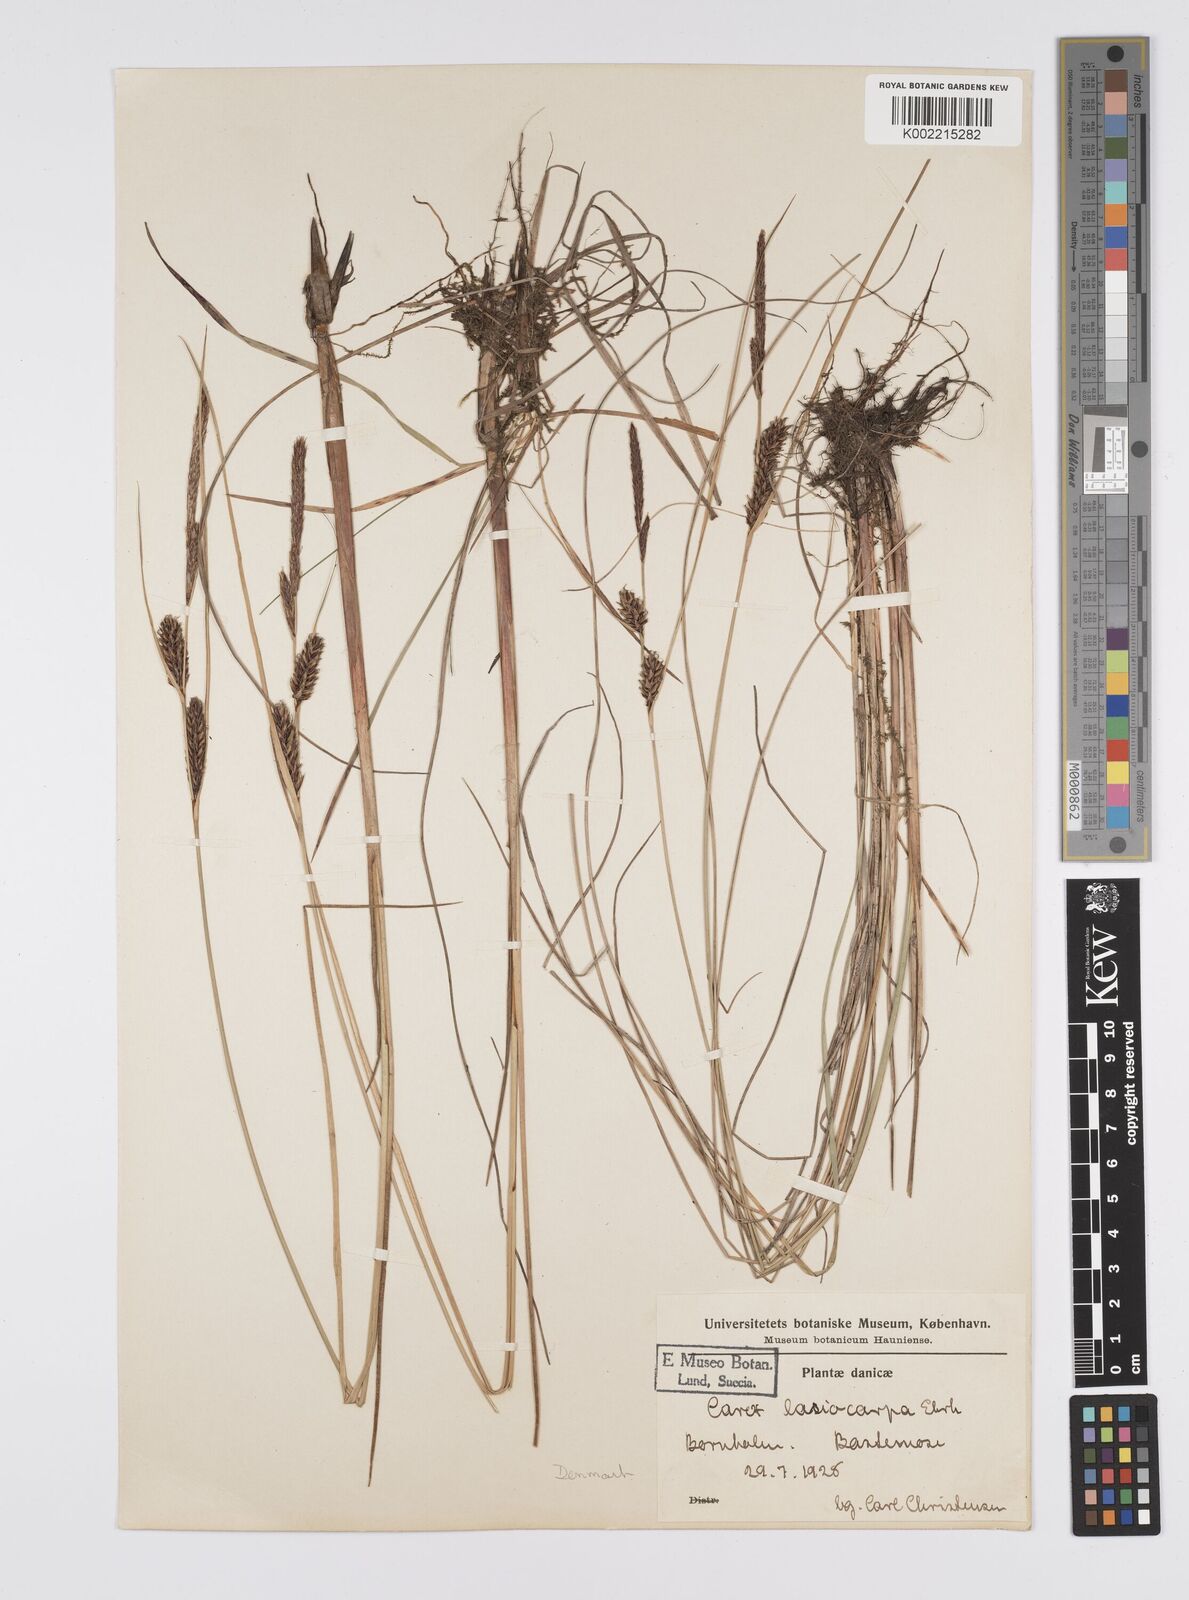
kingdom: Plantae
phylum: Tracheophyta
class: Liliopsida
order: Poales
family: Cyperaceae
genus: Carex
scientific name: Carex lasiocarpa
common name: Slender sedge
